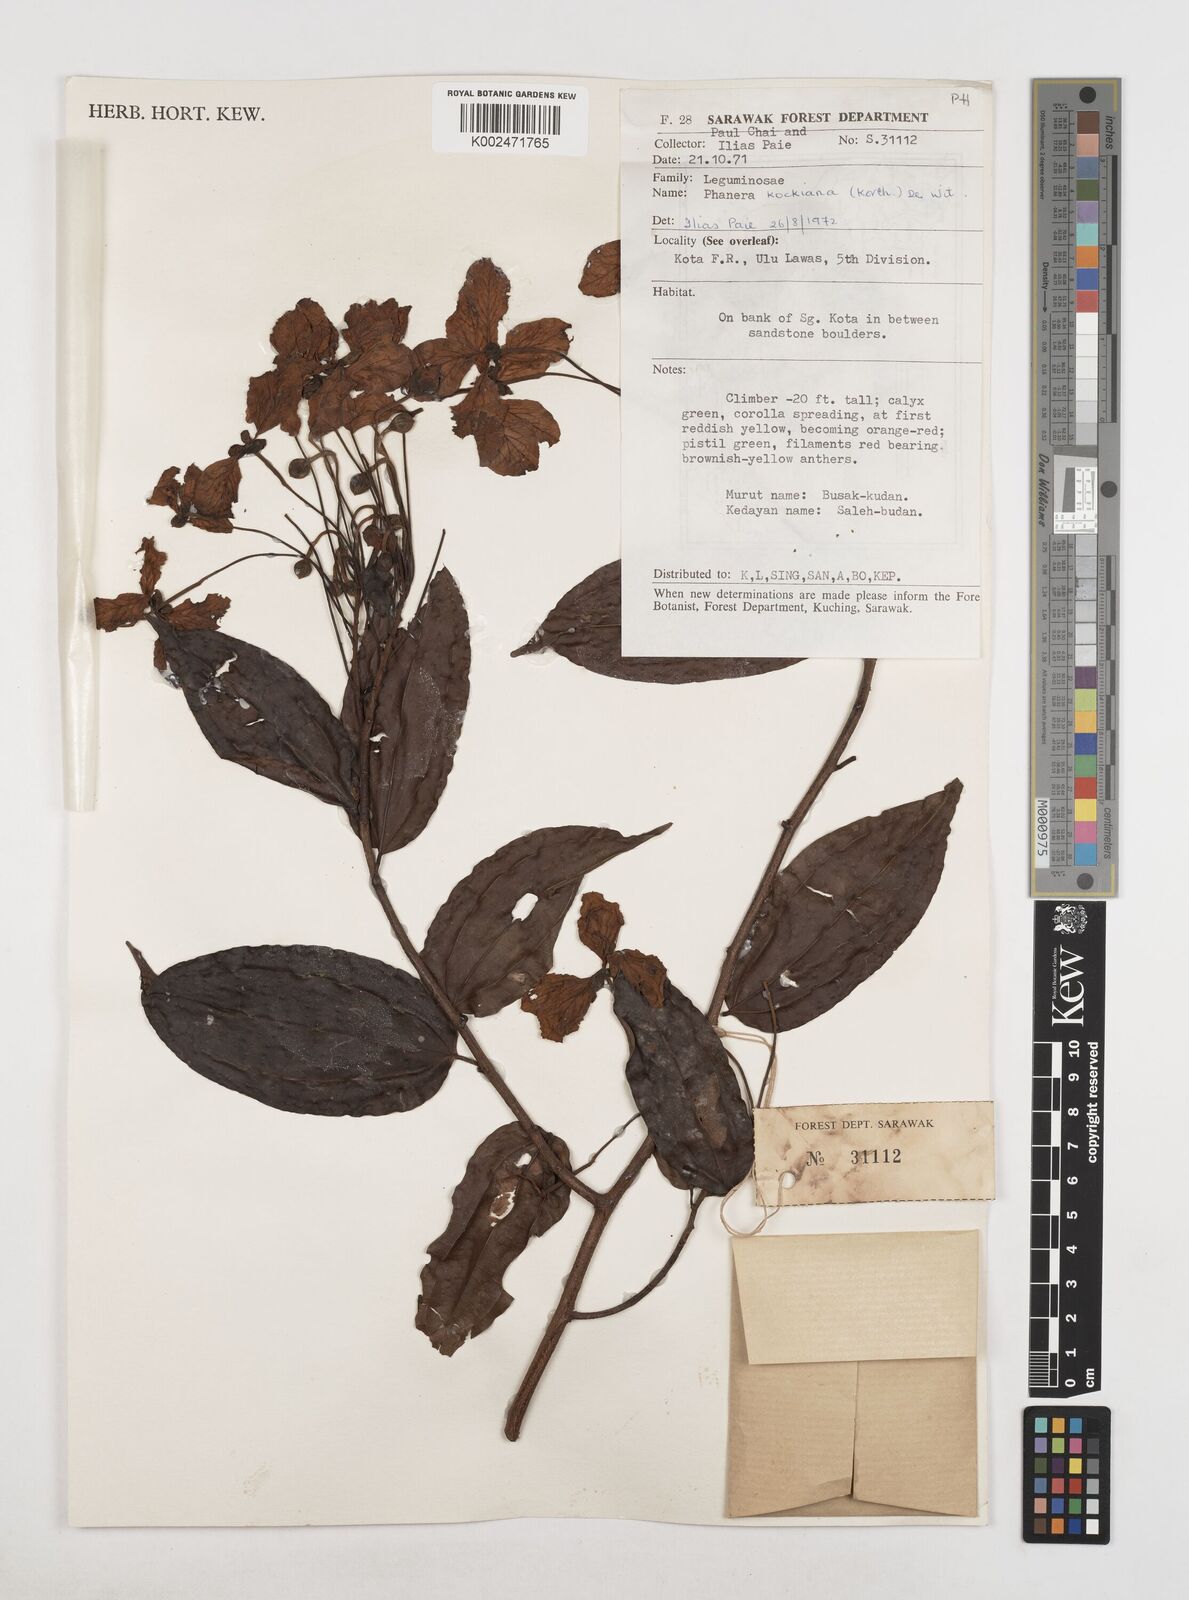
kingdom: Plantae
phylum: Tracheophyta
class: Magnoliopsida
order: Fabales
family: Fabaceae
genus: Phanera
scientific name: Phanera kockiana
